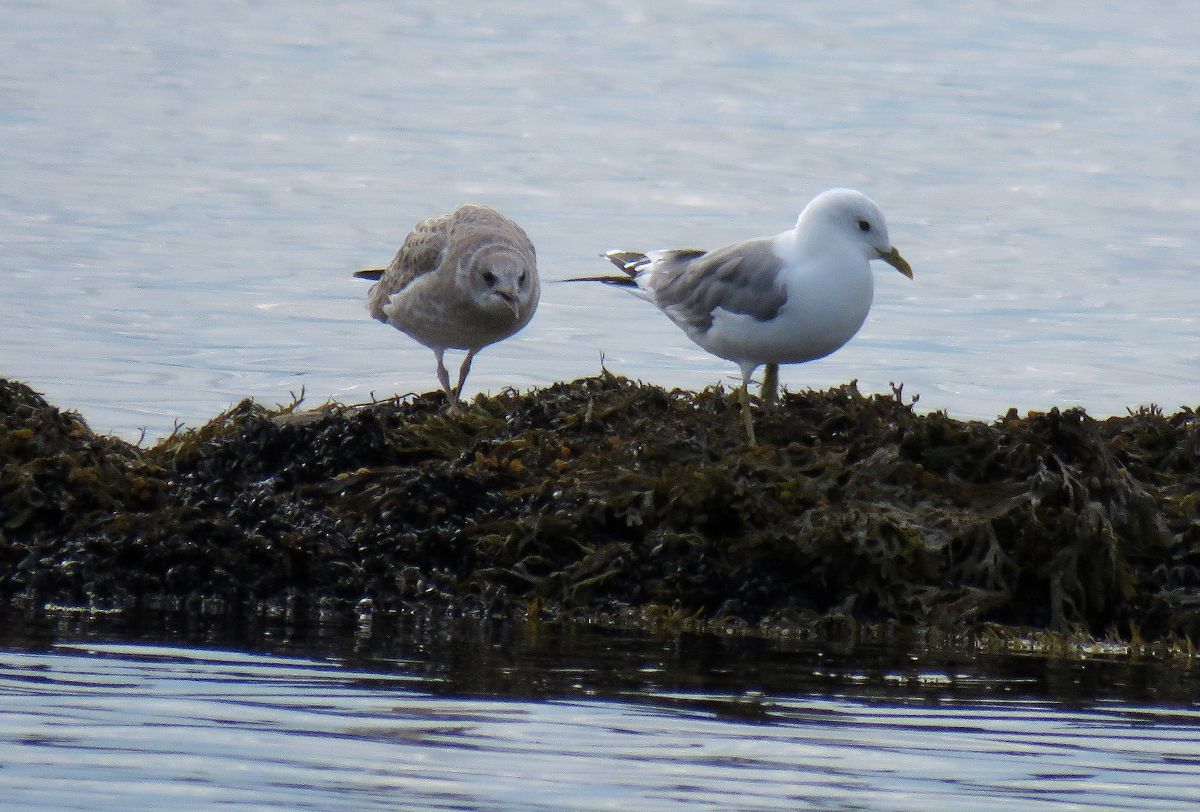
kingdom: Animalia
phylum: Chordata
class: Aves
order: Charadriiformes
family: Laridae
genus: Larus
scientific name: Larus canus
